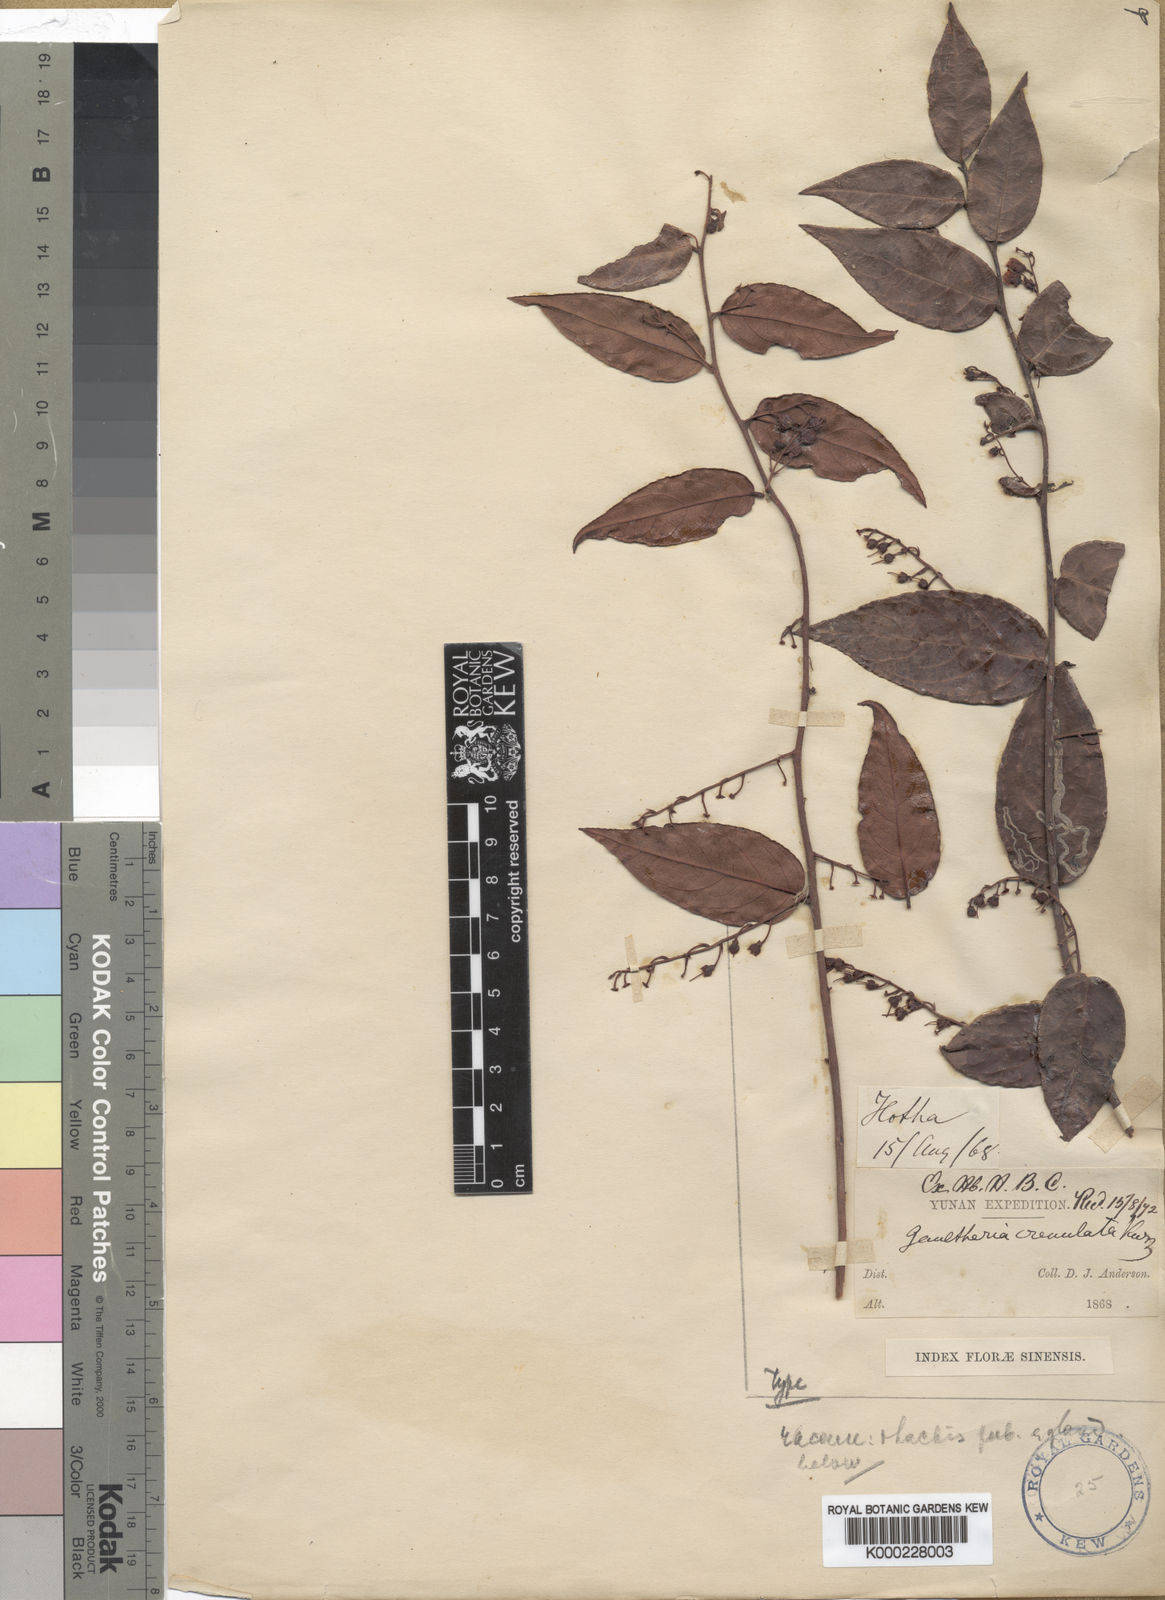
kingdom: Plantae
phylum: Tracheophyta
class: Magnoliopsida
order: Ericales
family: Ericaceae
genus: Gaultheria
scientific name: Gaultheria leucocarpa
